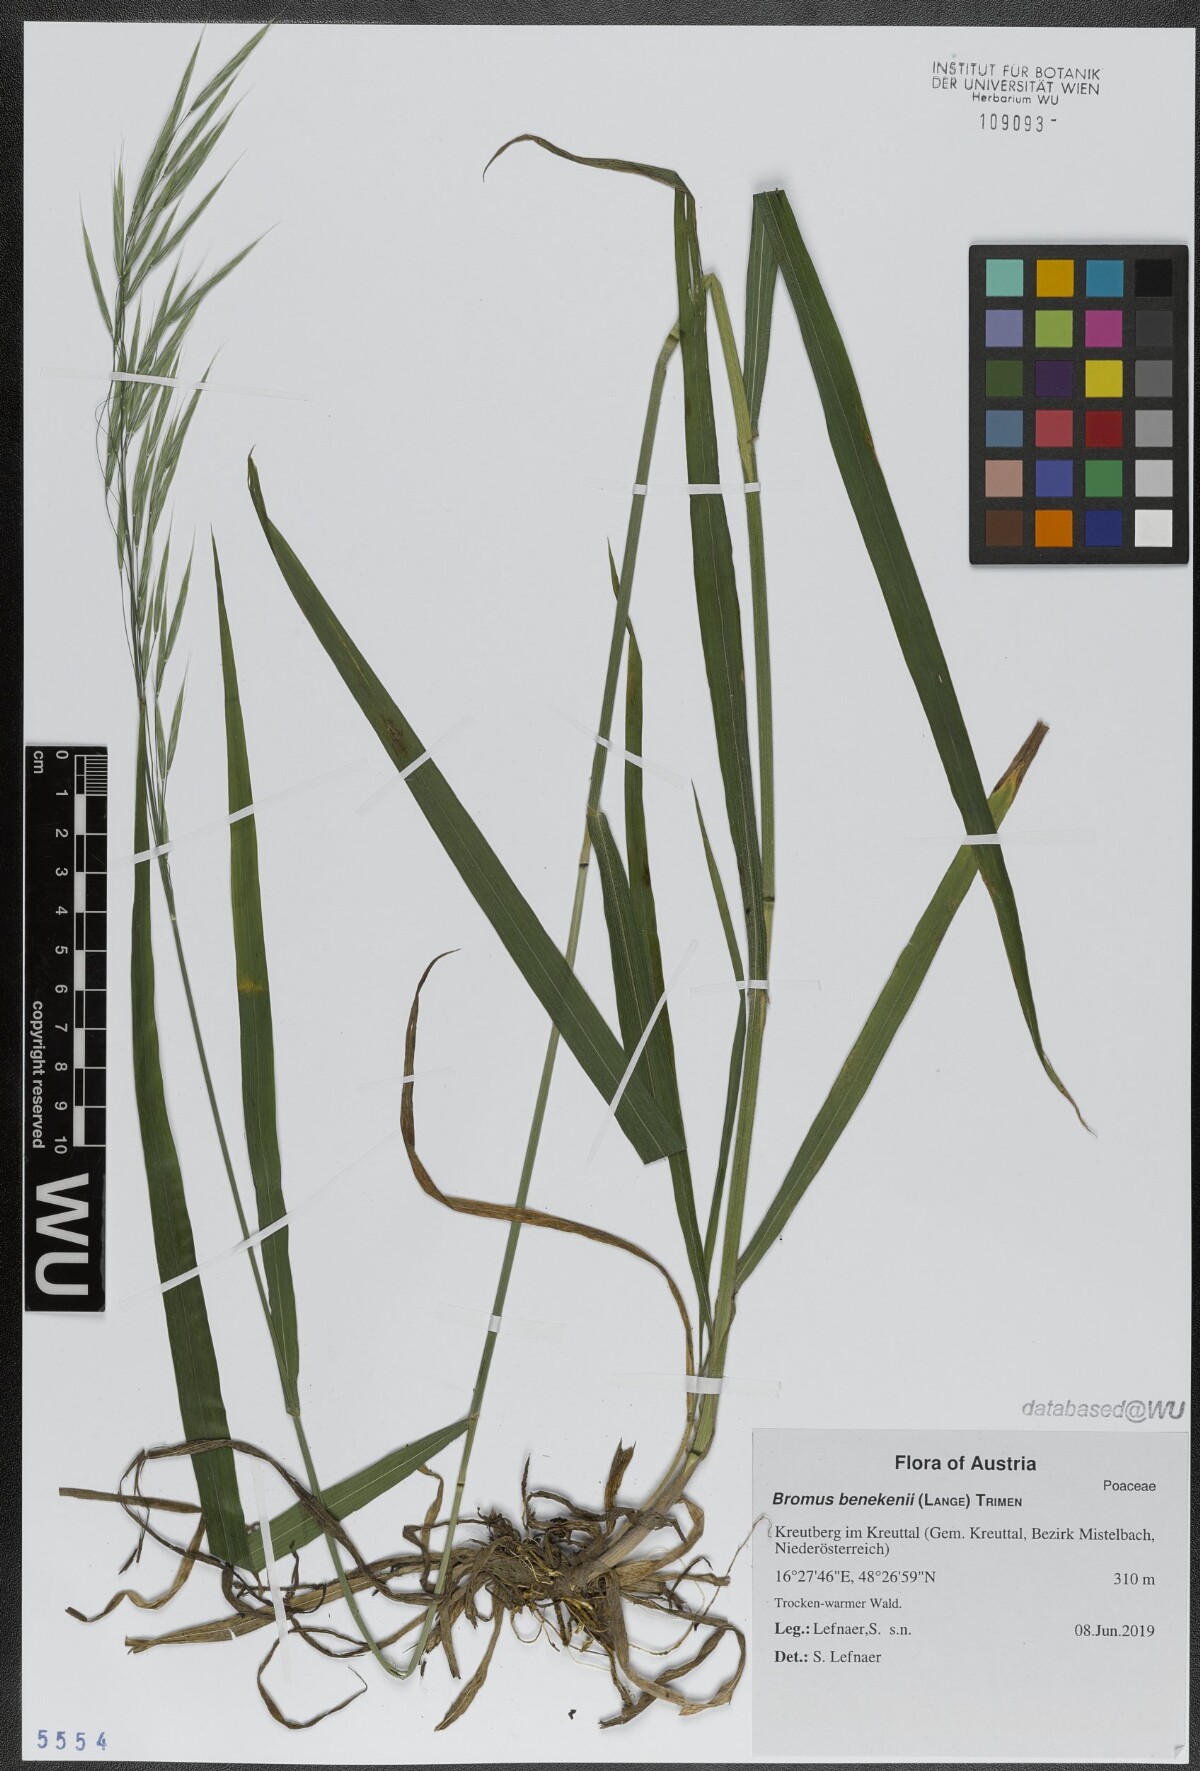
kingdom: Plantae
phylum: Tracheophyta
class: Liliopsida
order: Poales
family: Poaceae
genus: Bromus
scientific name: Bromus benekenii
